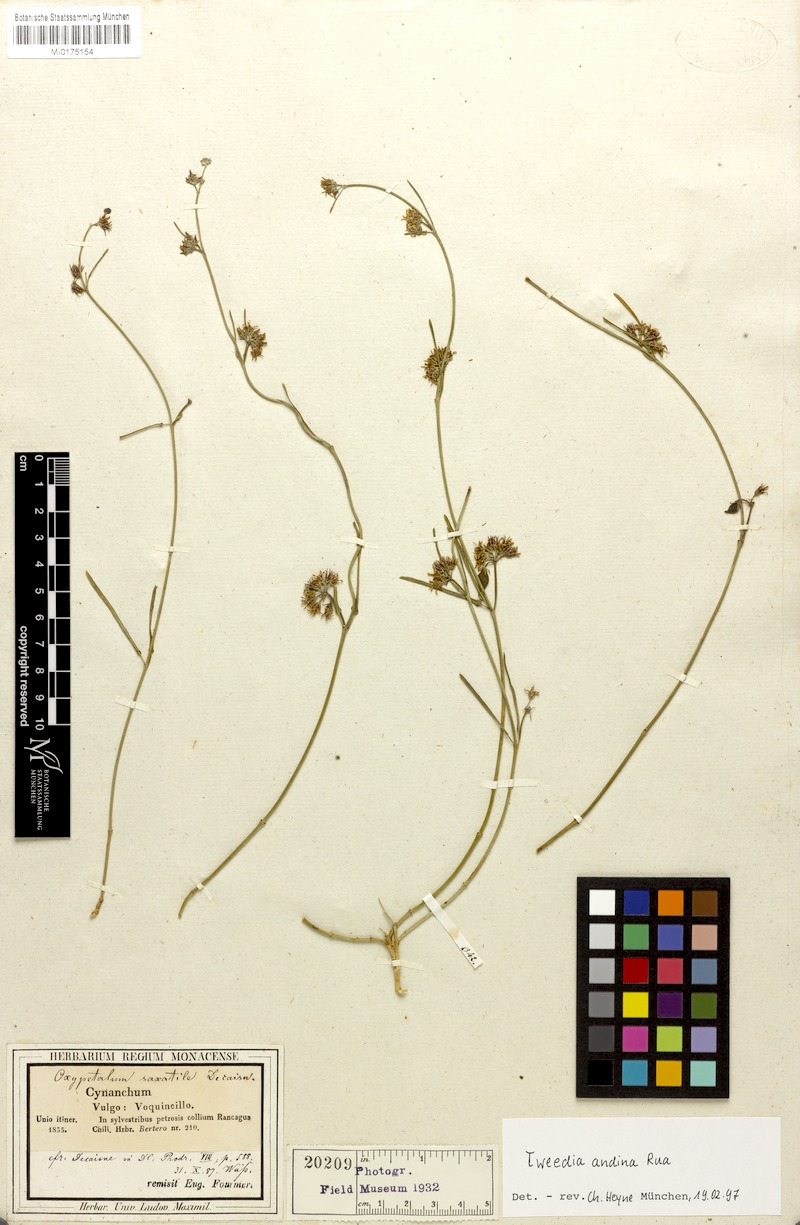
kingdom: Plantae
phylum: Tracheophyta
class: Magnoliopsida
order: Gentianales
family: Apocynaceae
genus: Tweedia
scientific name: Tweedia andina
